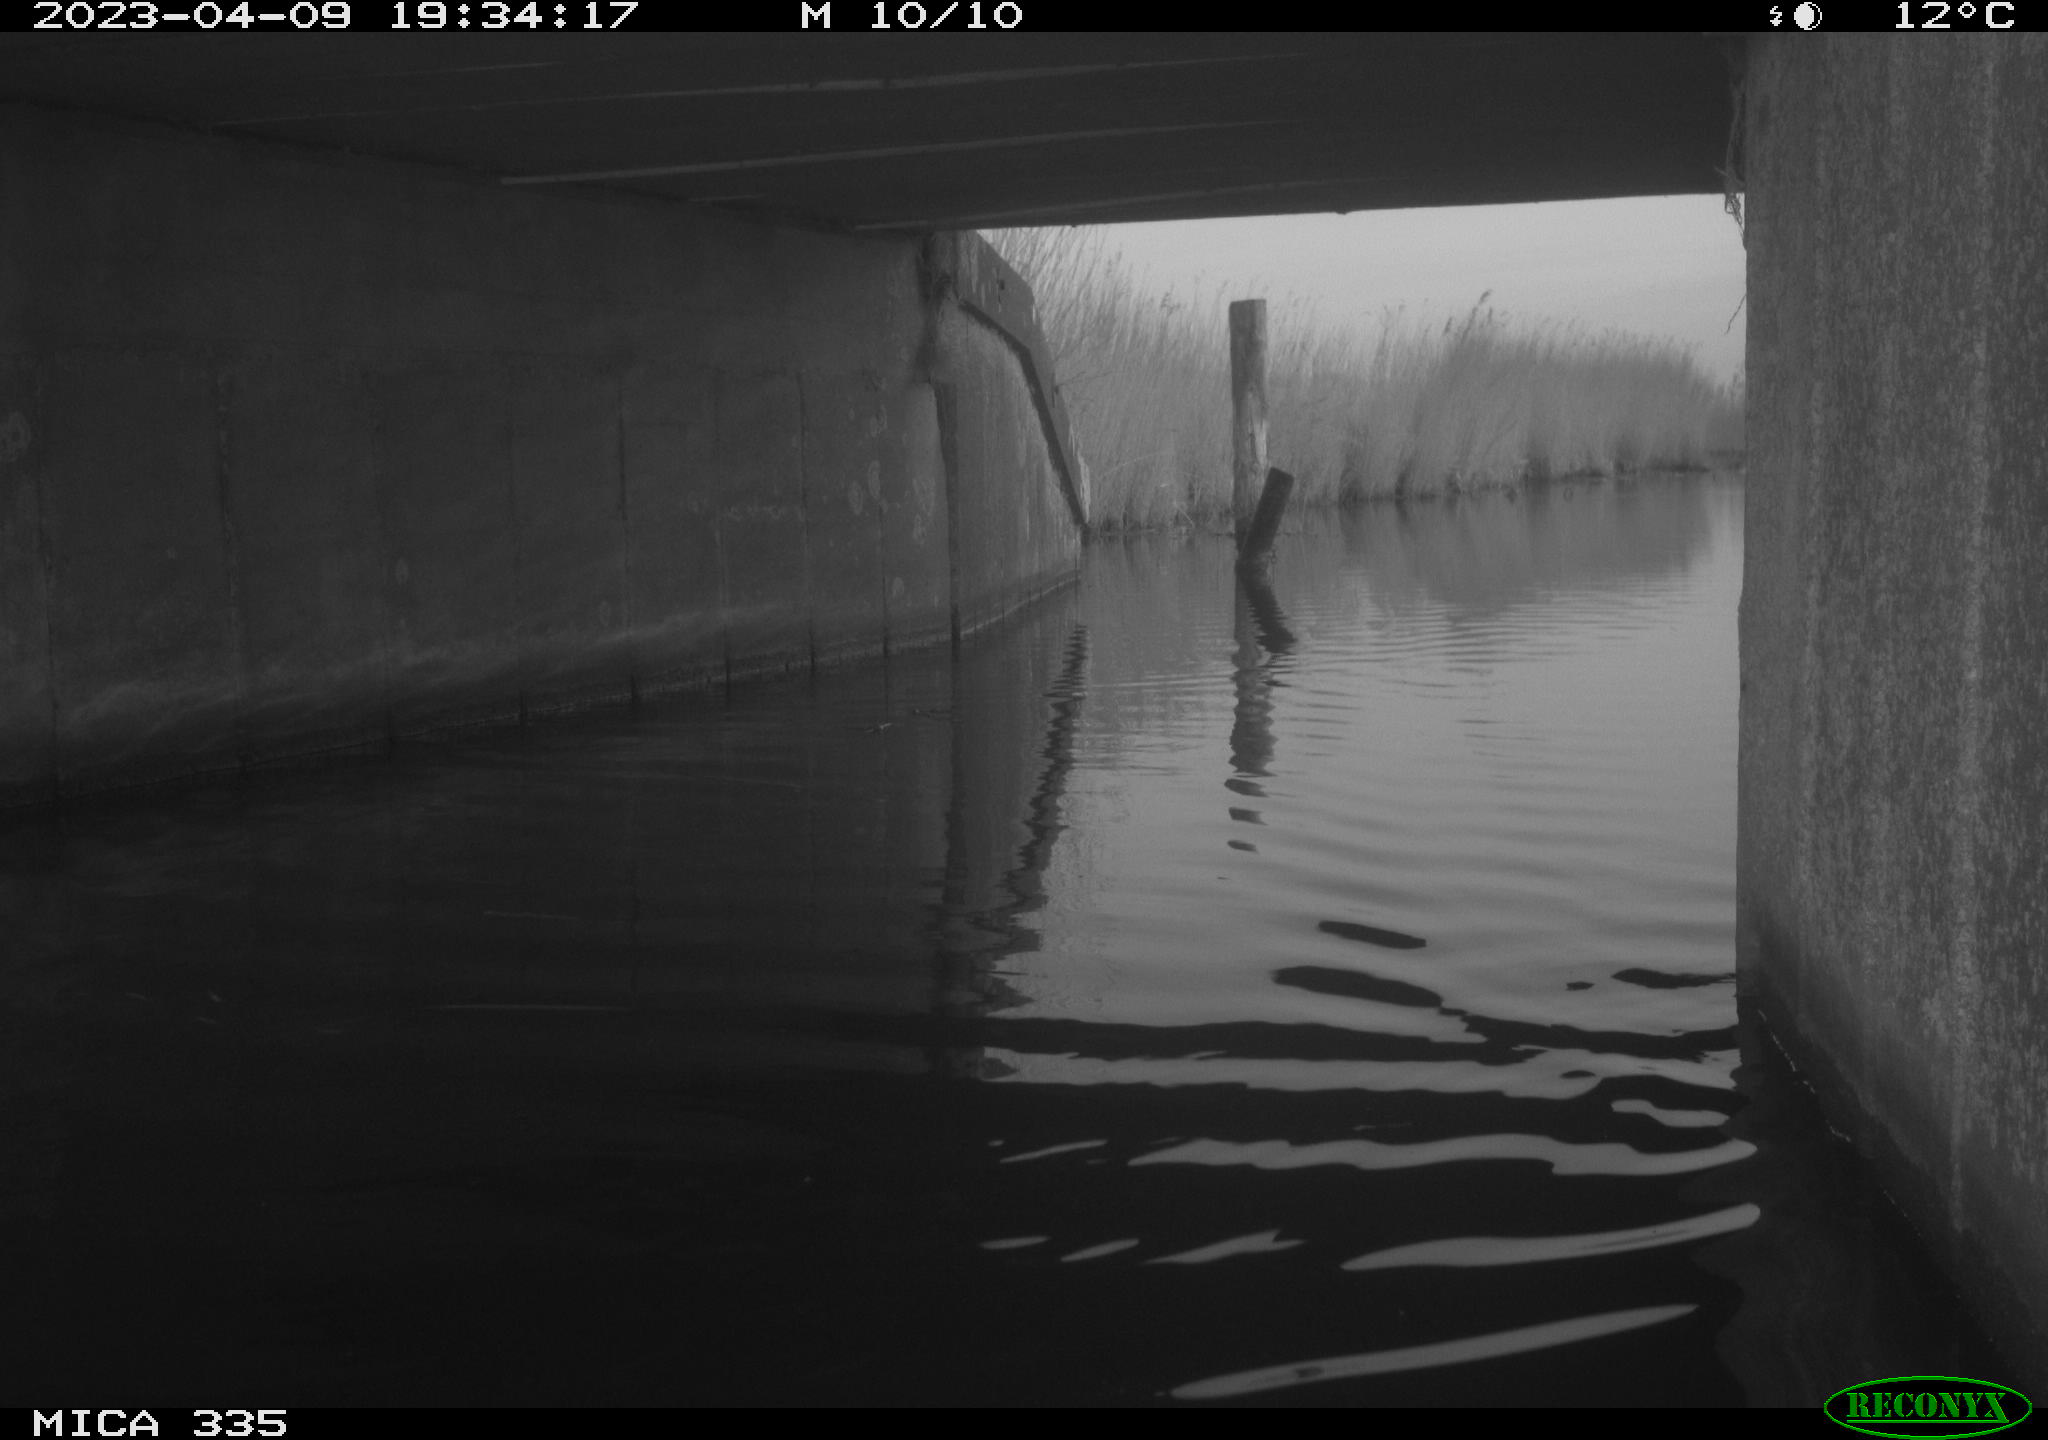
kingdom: Animalia
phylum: Chordata
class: Aves
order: Anseriformes
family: Anatidae
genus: Anas
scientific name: Anas
